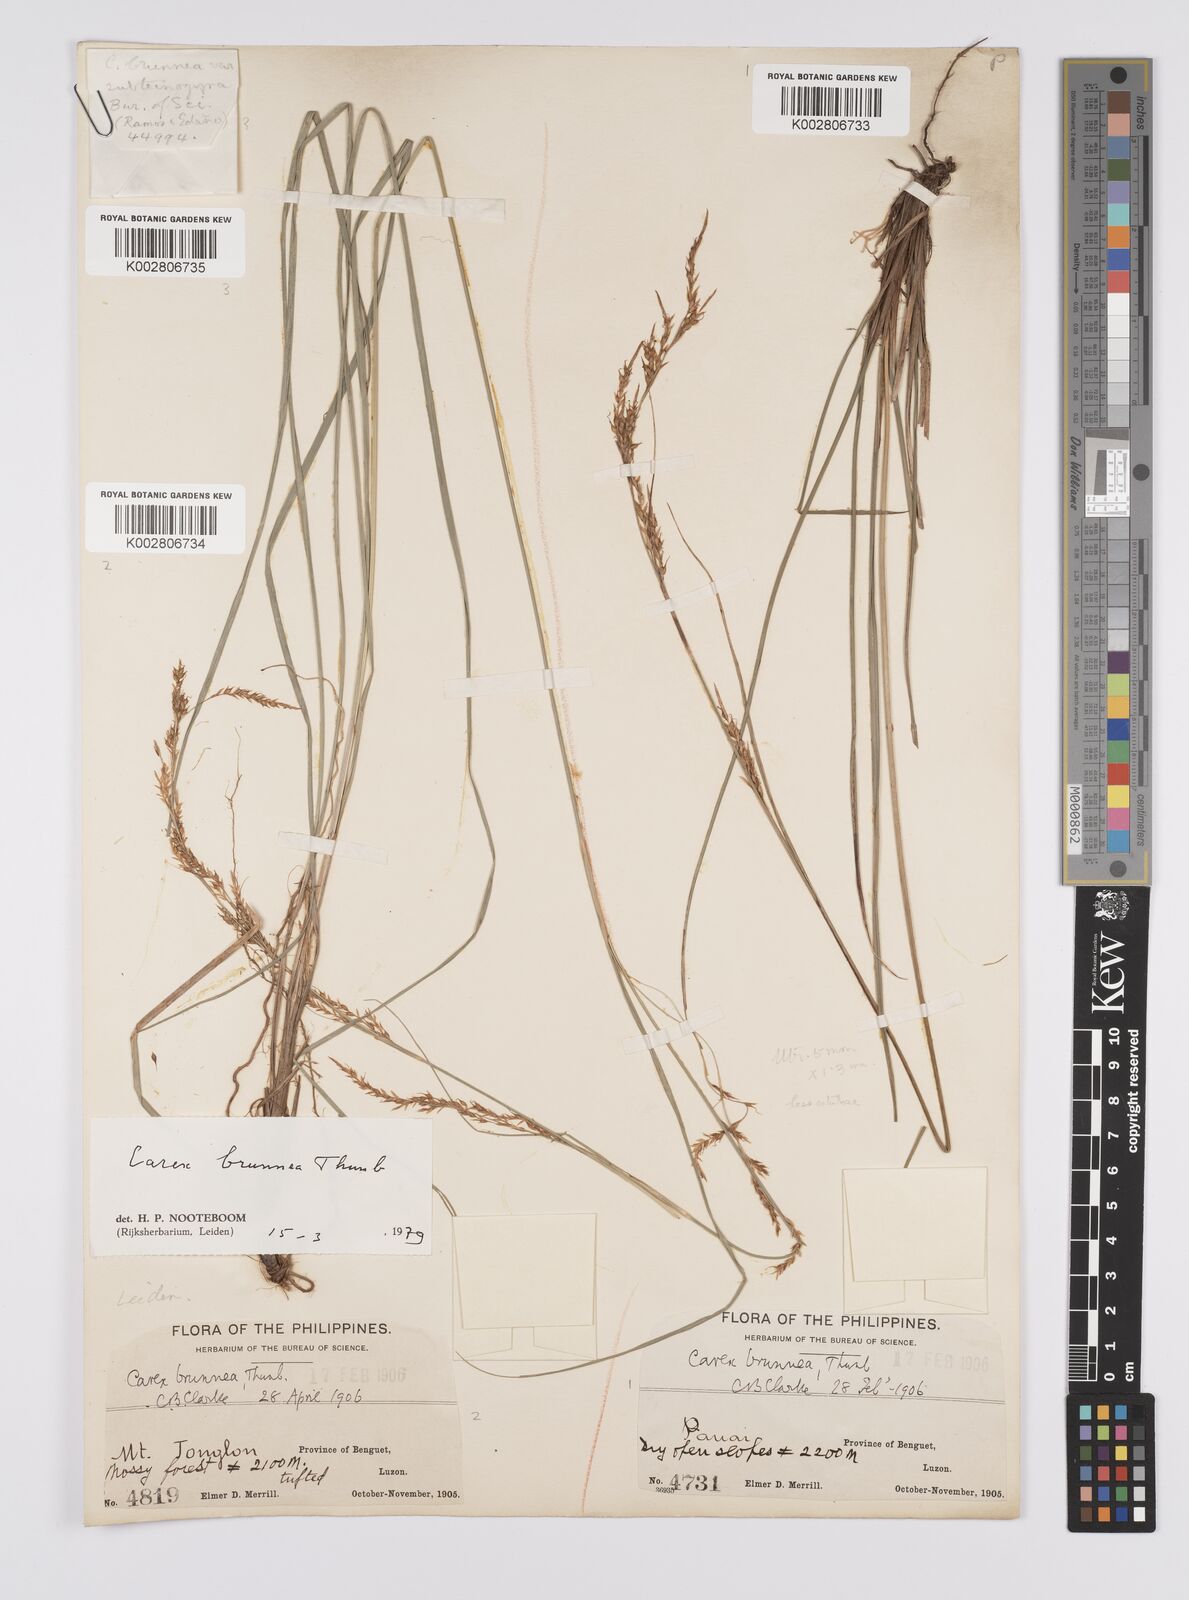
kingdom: Plantae
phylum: Tracheophyta
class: Liliopsida
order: Poales
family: Cyperaceae
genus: Carex
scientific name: Carex brunnea
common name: Greater brown sedge
